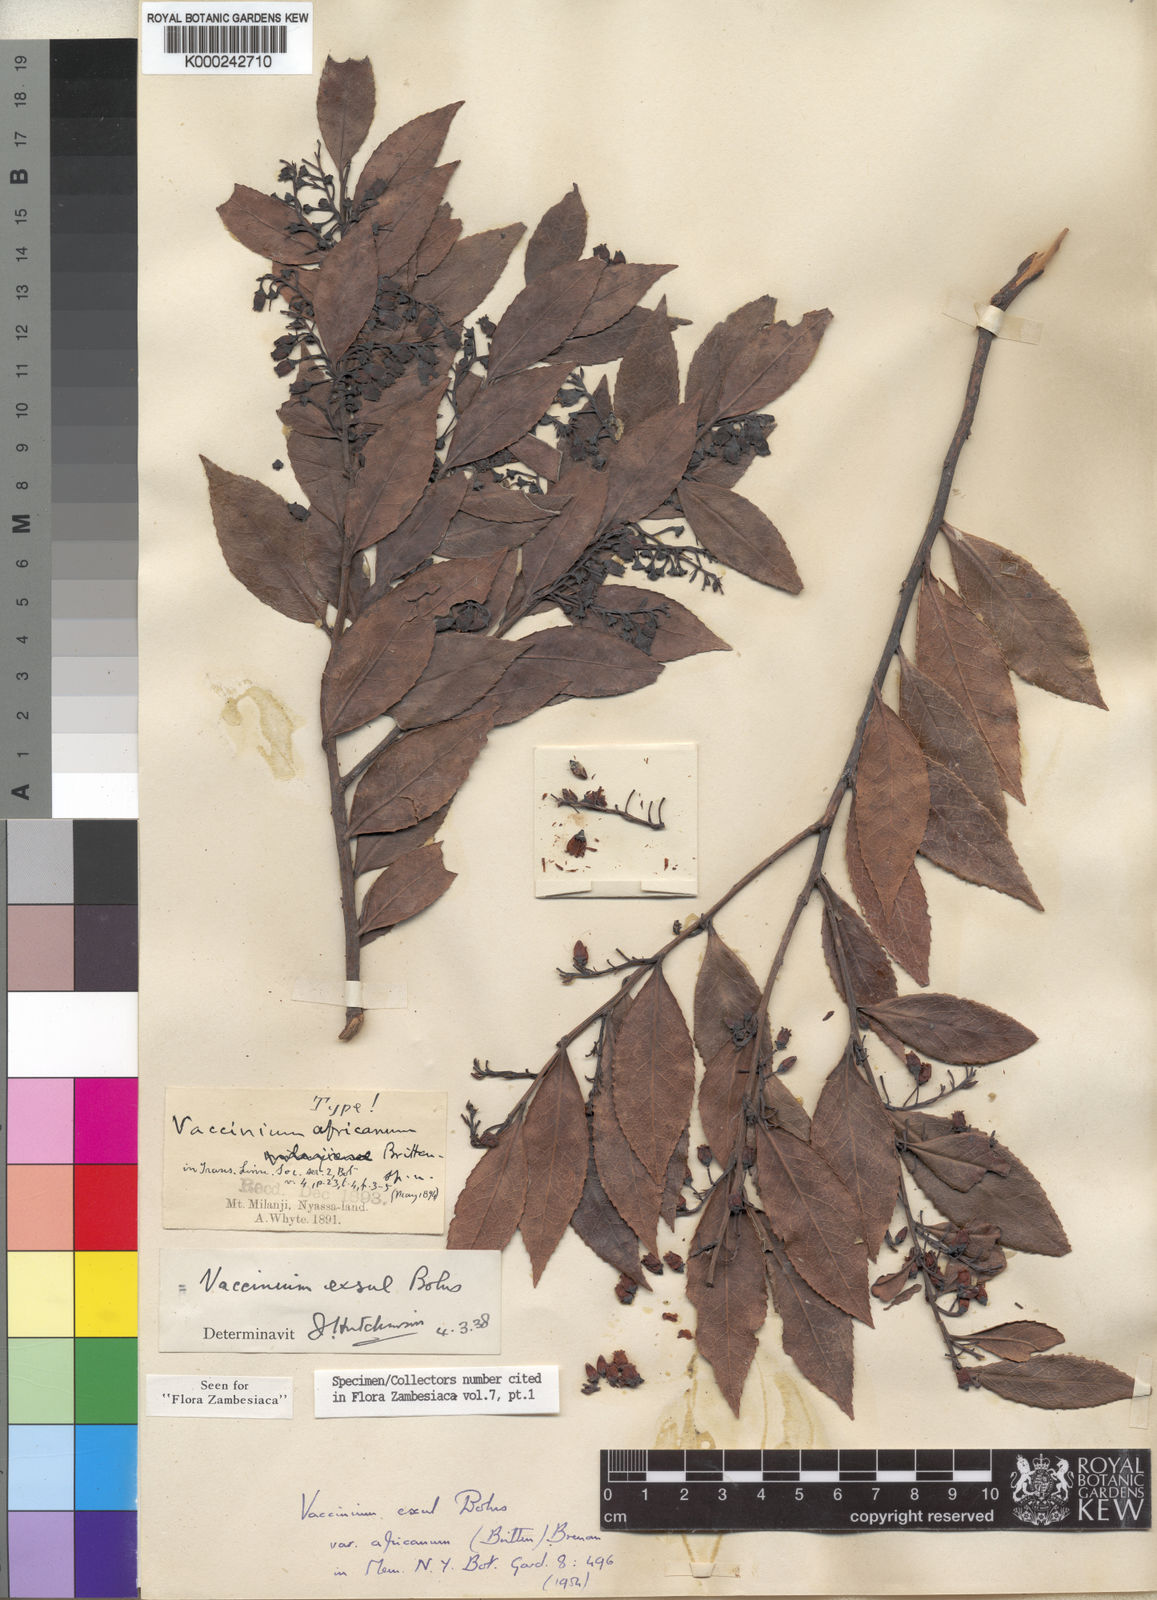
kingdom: Plantae
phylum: Tracheophyta
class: Magnoliopsida
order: Ericales
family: Ericaceae
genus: Vaccinium
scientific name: Vaccinium exul
